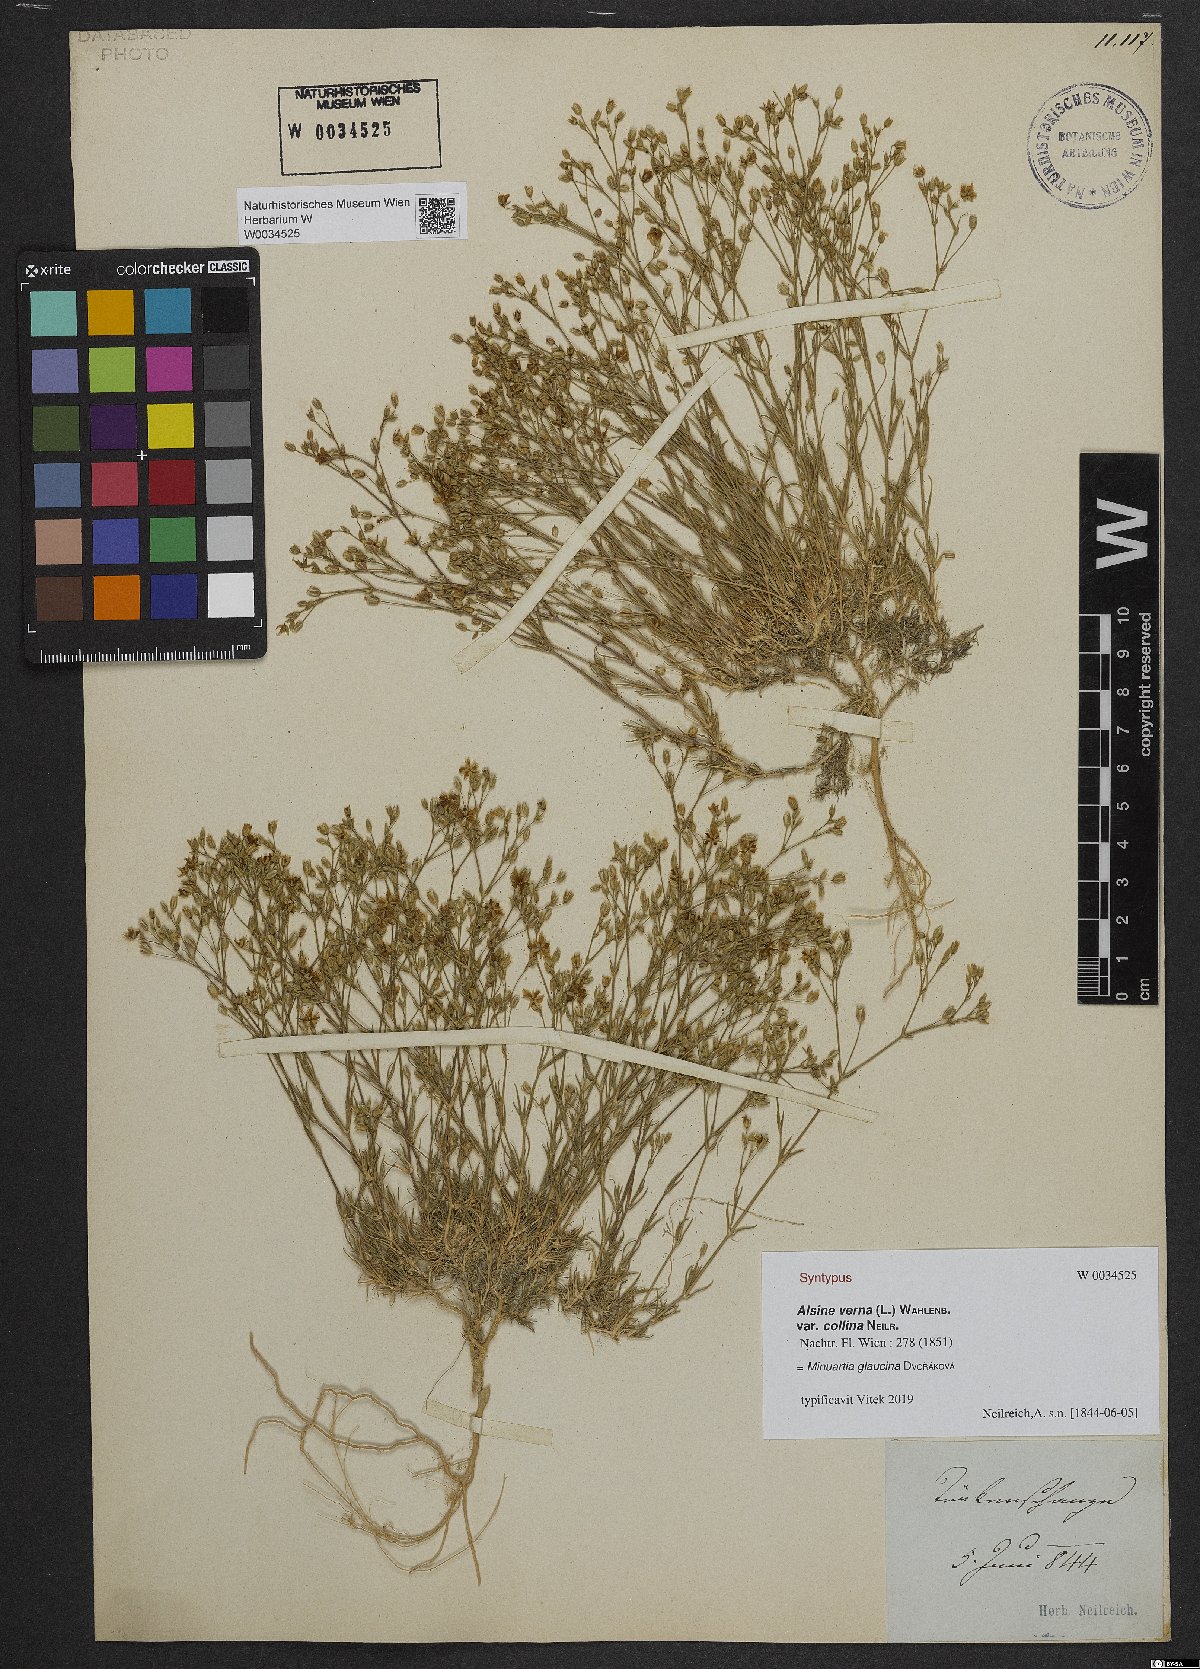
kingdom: Plantae
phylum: Tracheophyta
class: Magnoliopsida
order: Caryophyllales
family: Caryophyllaceae
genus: Sabulina
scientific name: Sabulina glaucina
